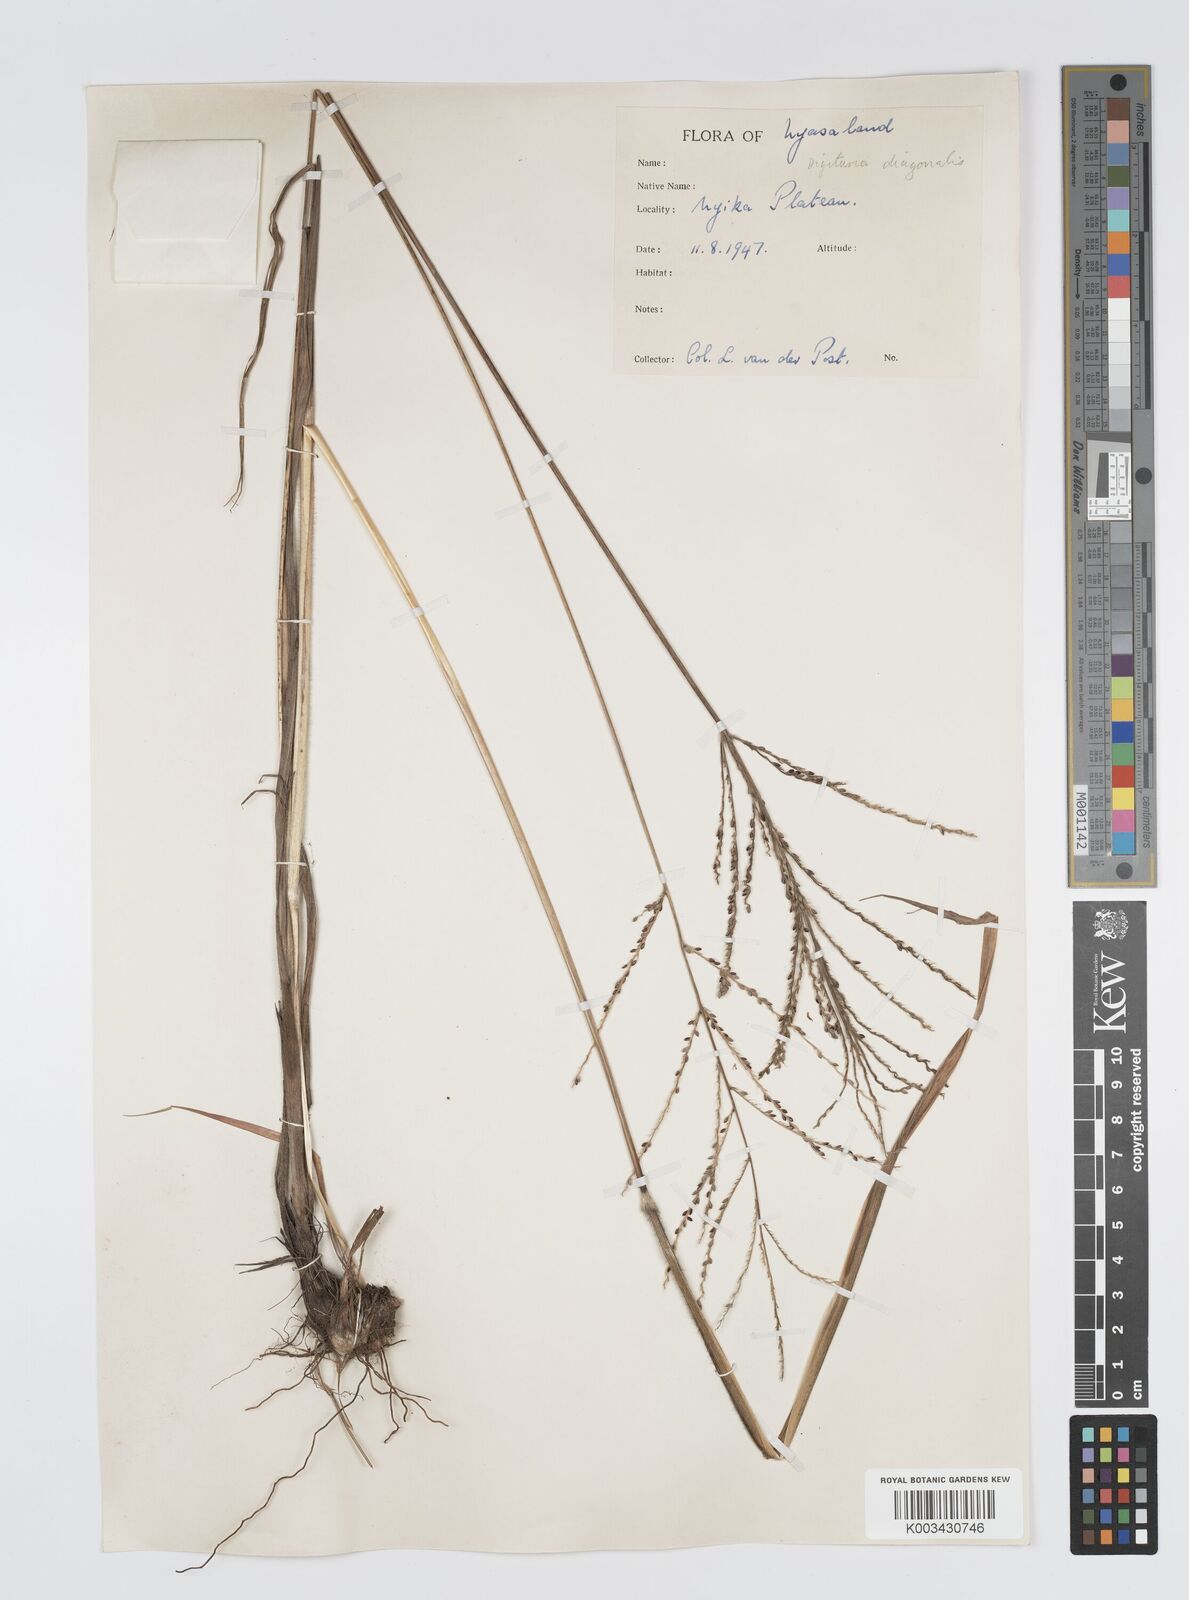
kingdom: Plantae
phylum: Tracheophyta
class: Liliopsida
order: Poales
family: Poaceae
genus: Digitaria
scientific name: Digitaria diagonalis
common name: Brown-seed finger grass
